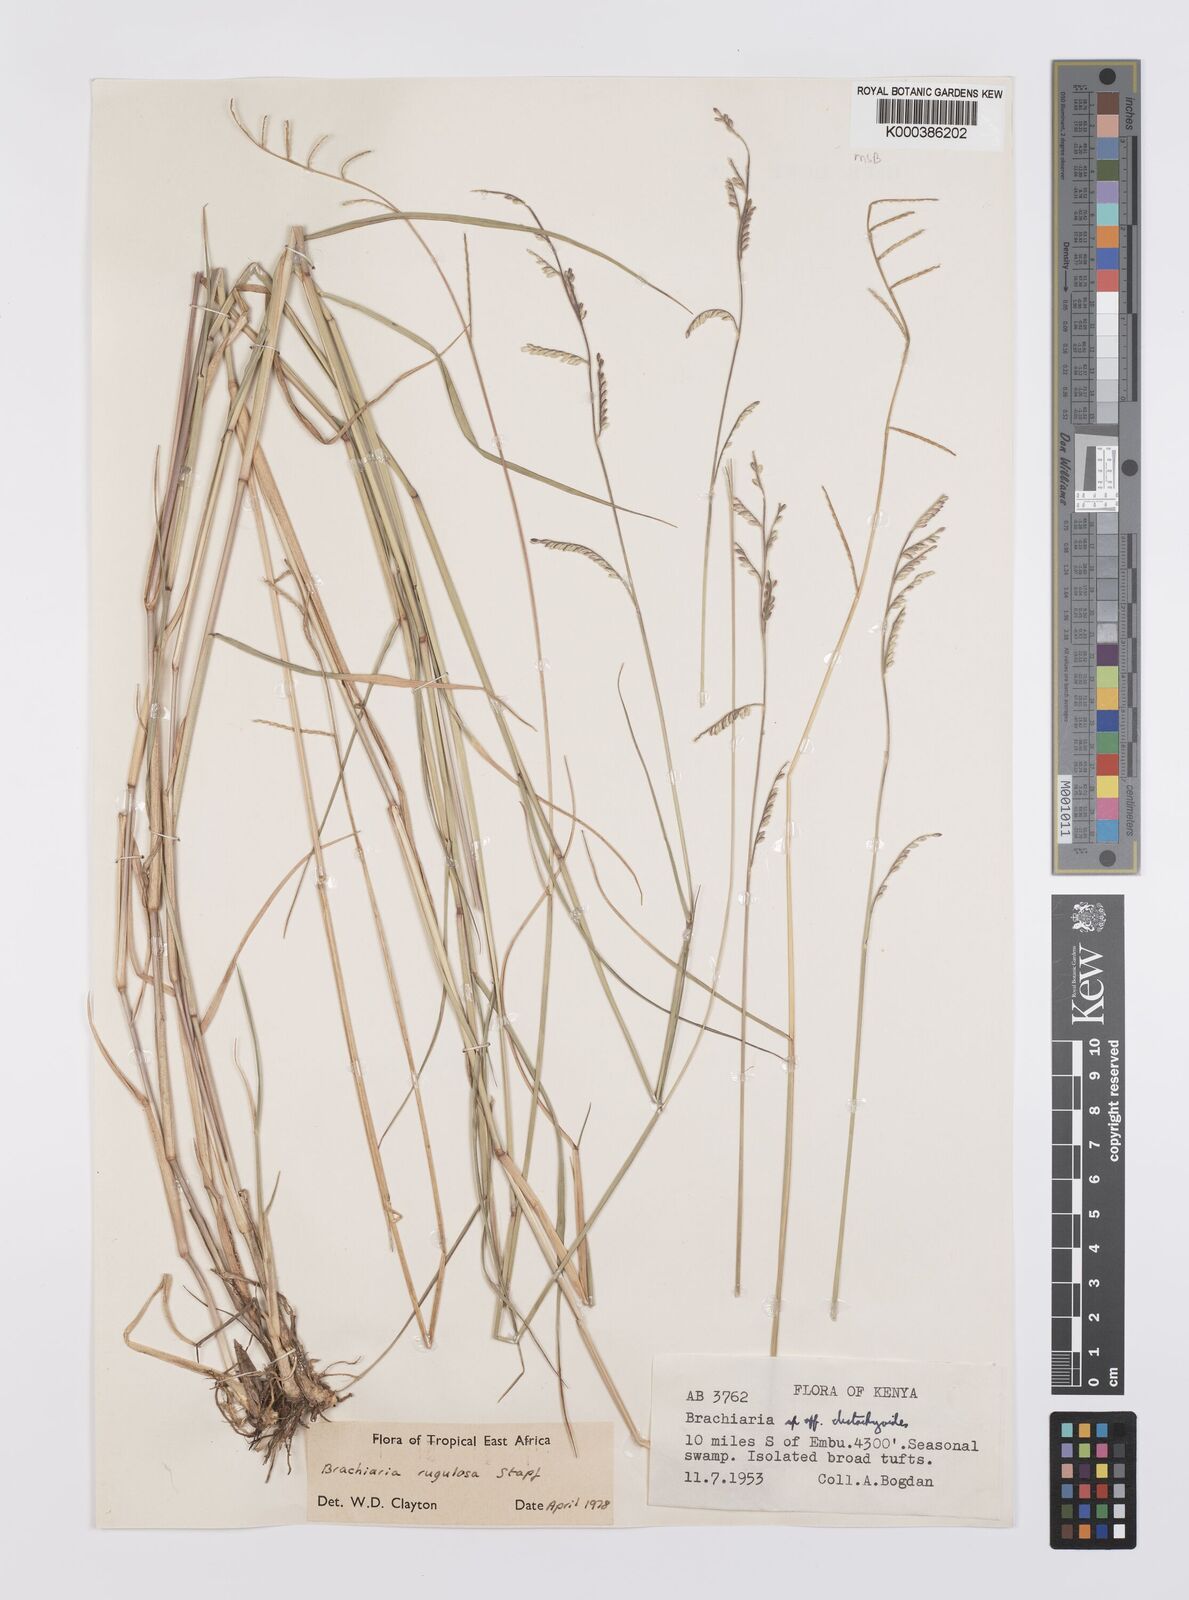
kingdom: Plantae
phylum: Tracheophyta
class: Liliopsida
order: Poales
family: Poaceae
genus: Urochloa
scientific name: Urochloa rugulosa
